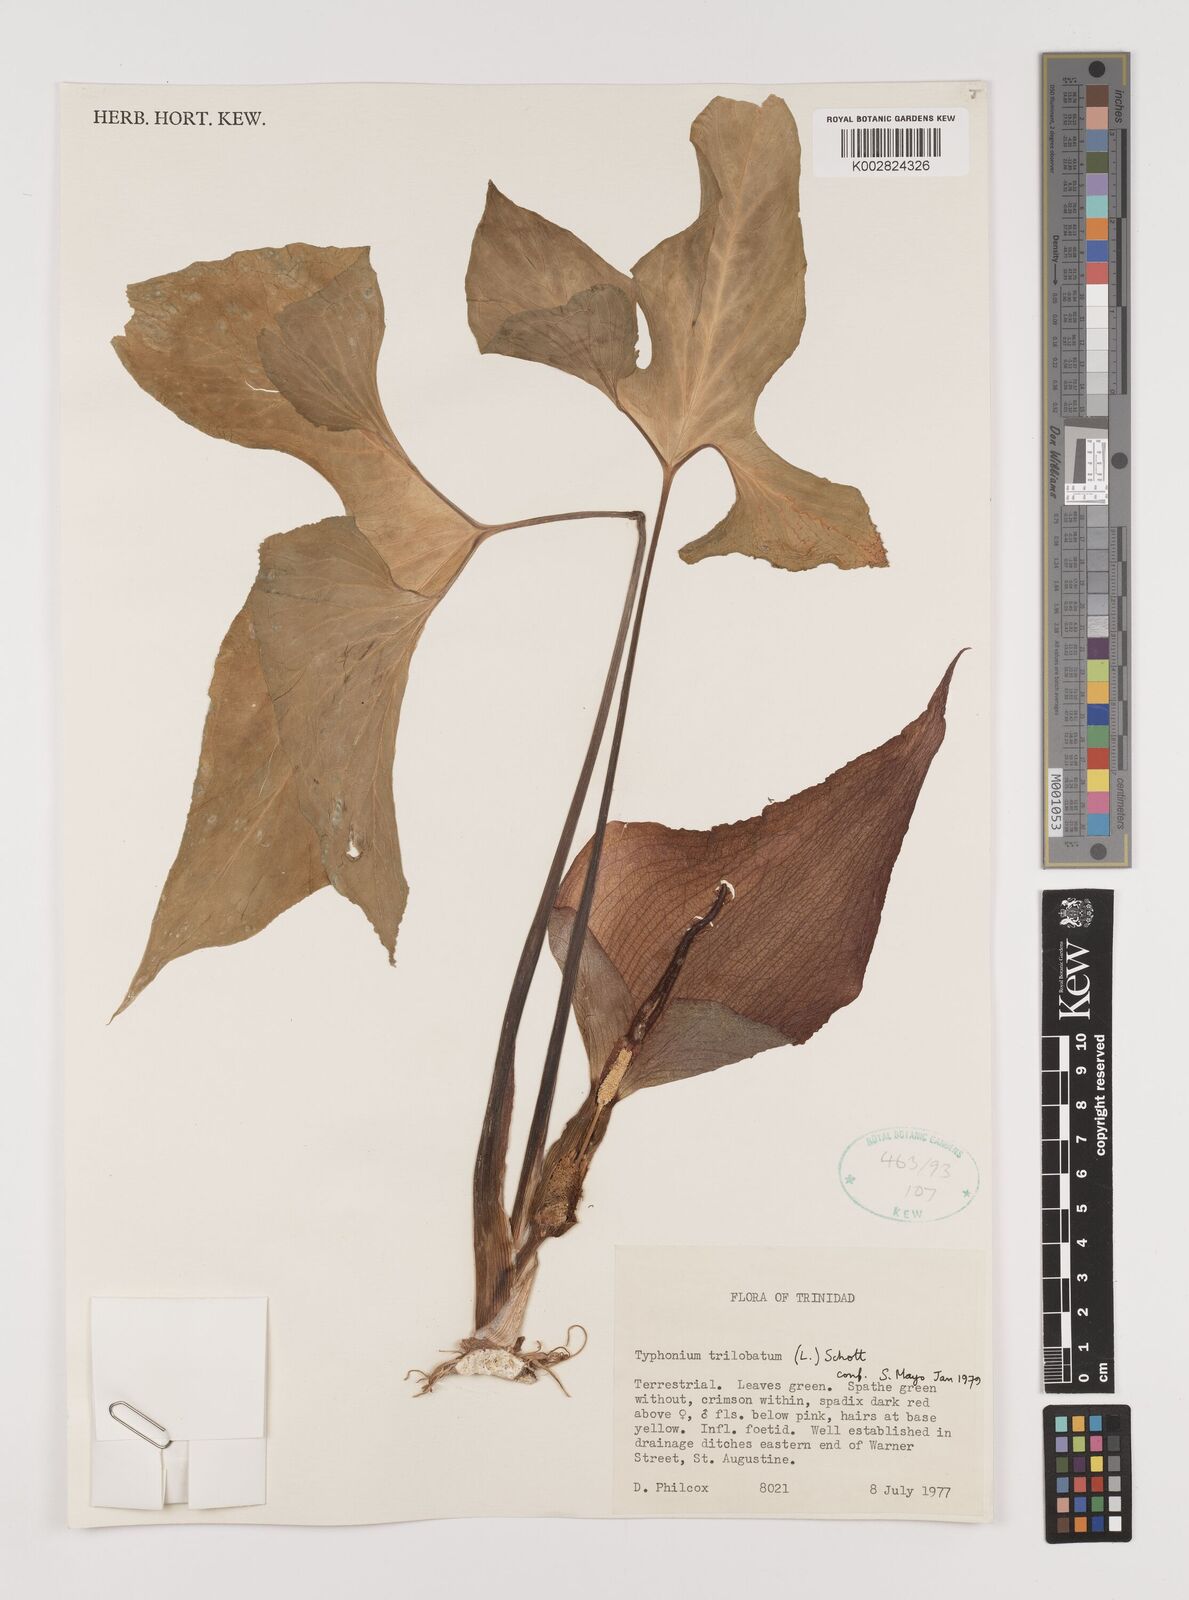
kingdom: Plantae
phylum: Tracheophyta
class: Liliopsida
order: Alismatales
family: Araceae
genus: Typhonium
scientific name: Typhonium trilobatum
